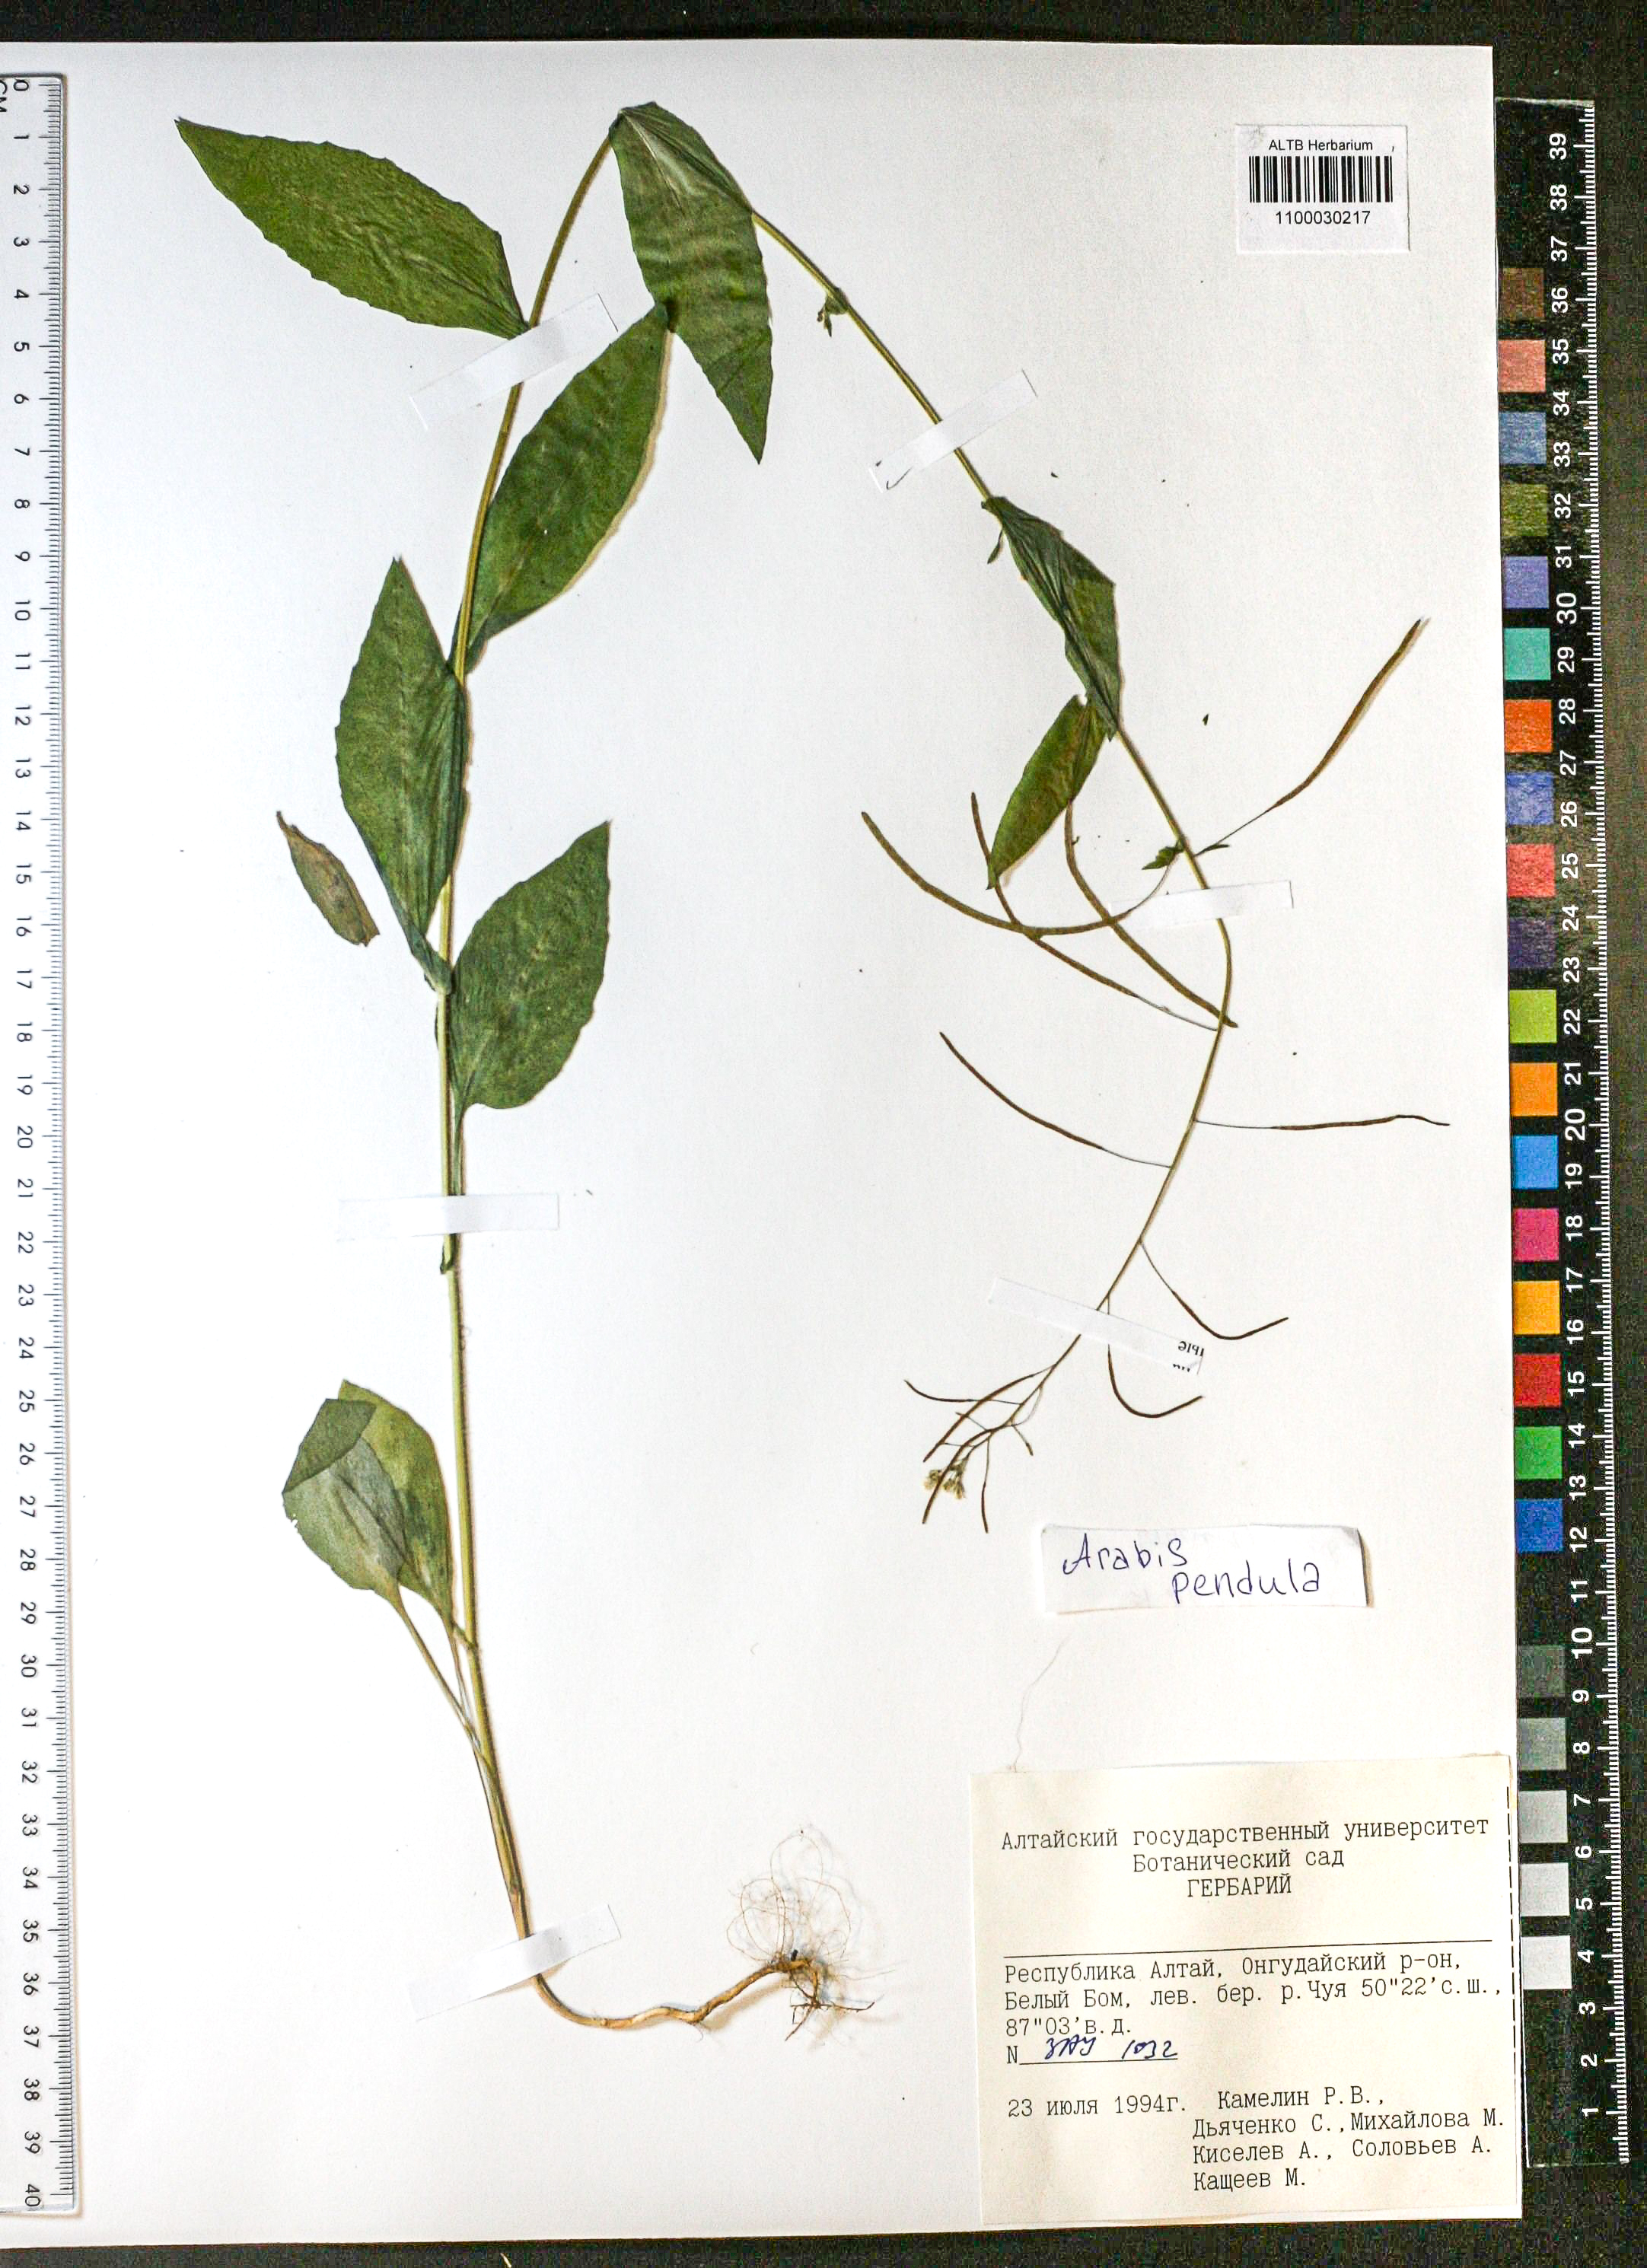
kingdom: Plantae
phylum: Tracheophyta
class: Magnoliopsida
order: Brassicales
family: Brassicaceae
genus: Catolobus
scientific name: Catolobus pendulus
